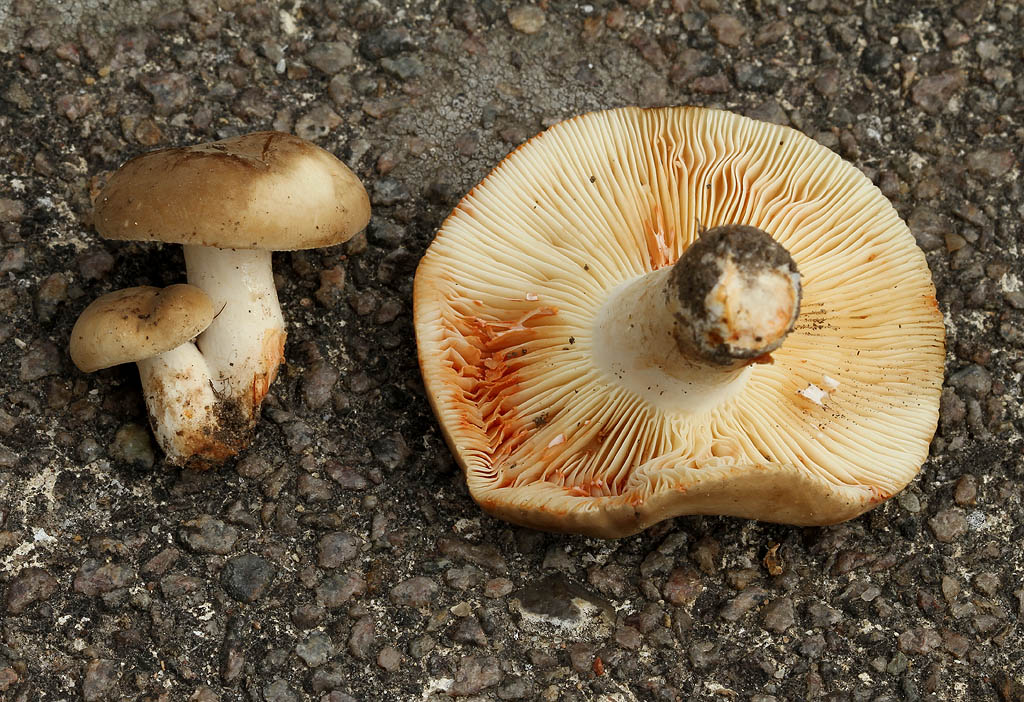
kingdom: Fungi
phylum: Basidiomycota
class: Agaricomycetes
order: Russulales
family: Russulaceae
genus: Lactarius
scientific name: Lactarius azonites
